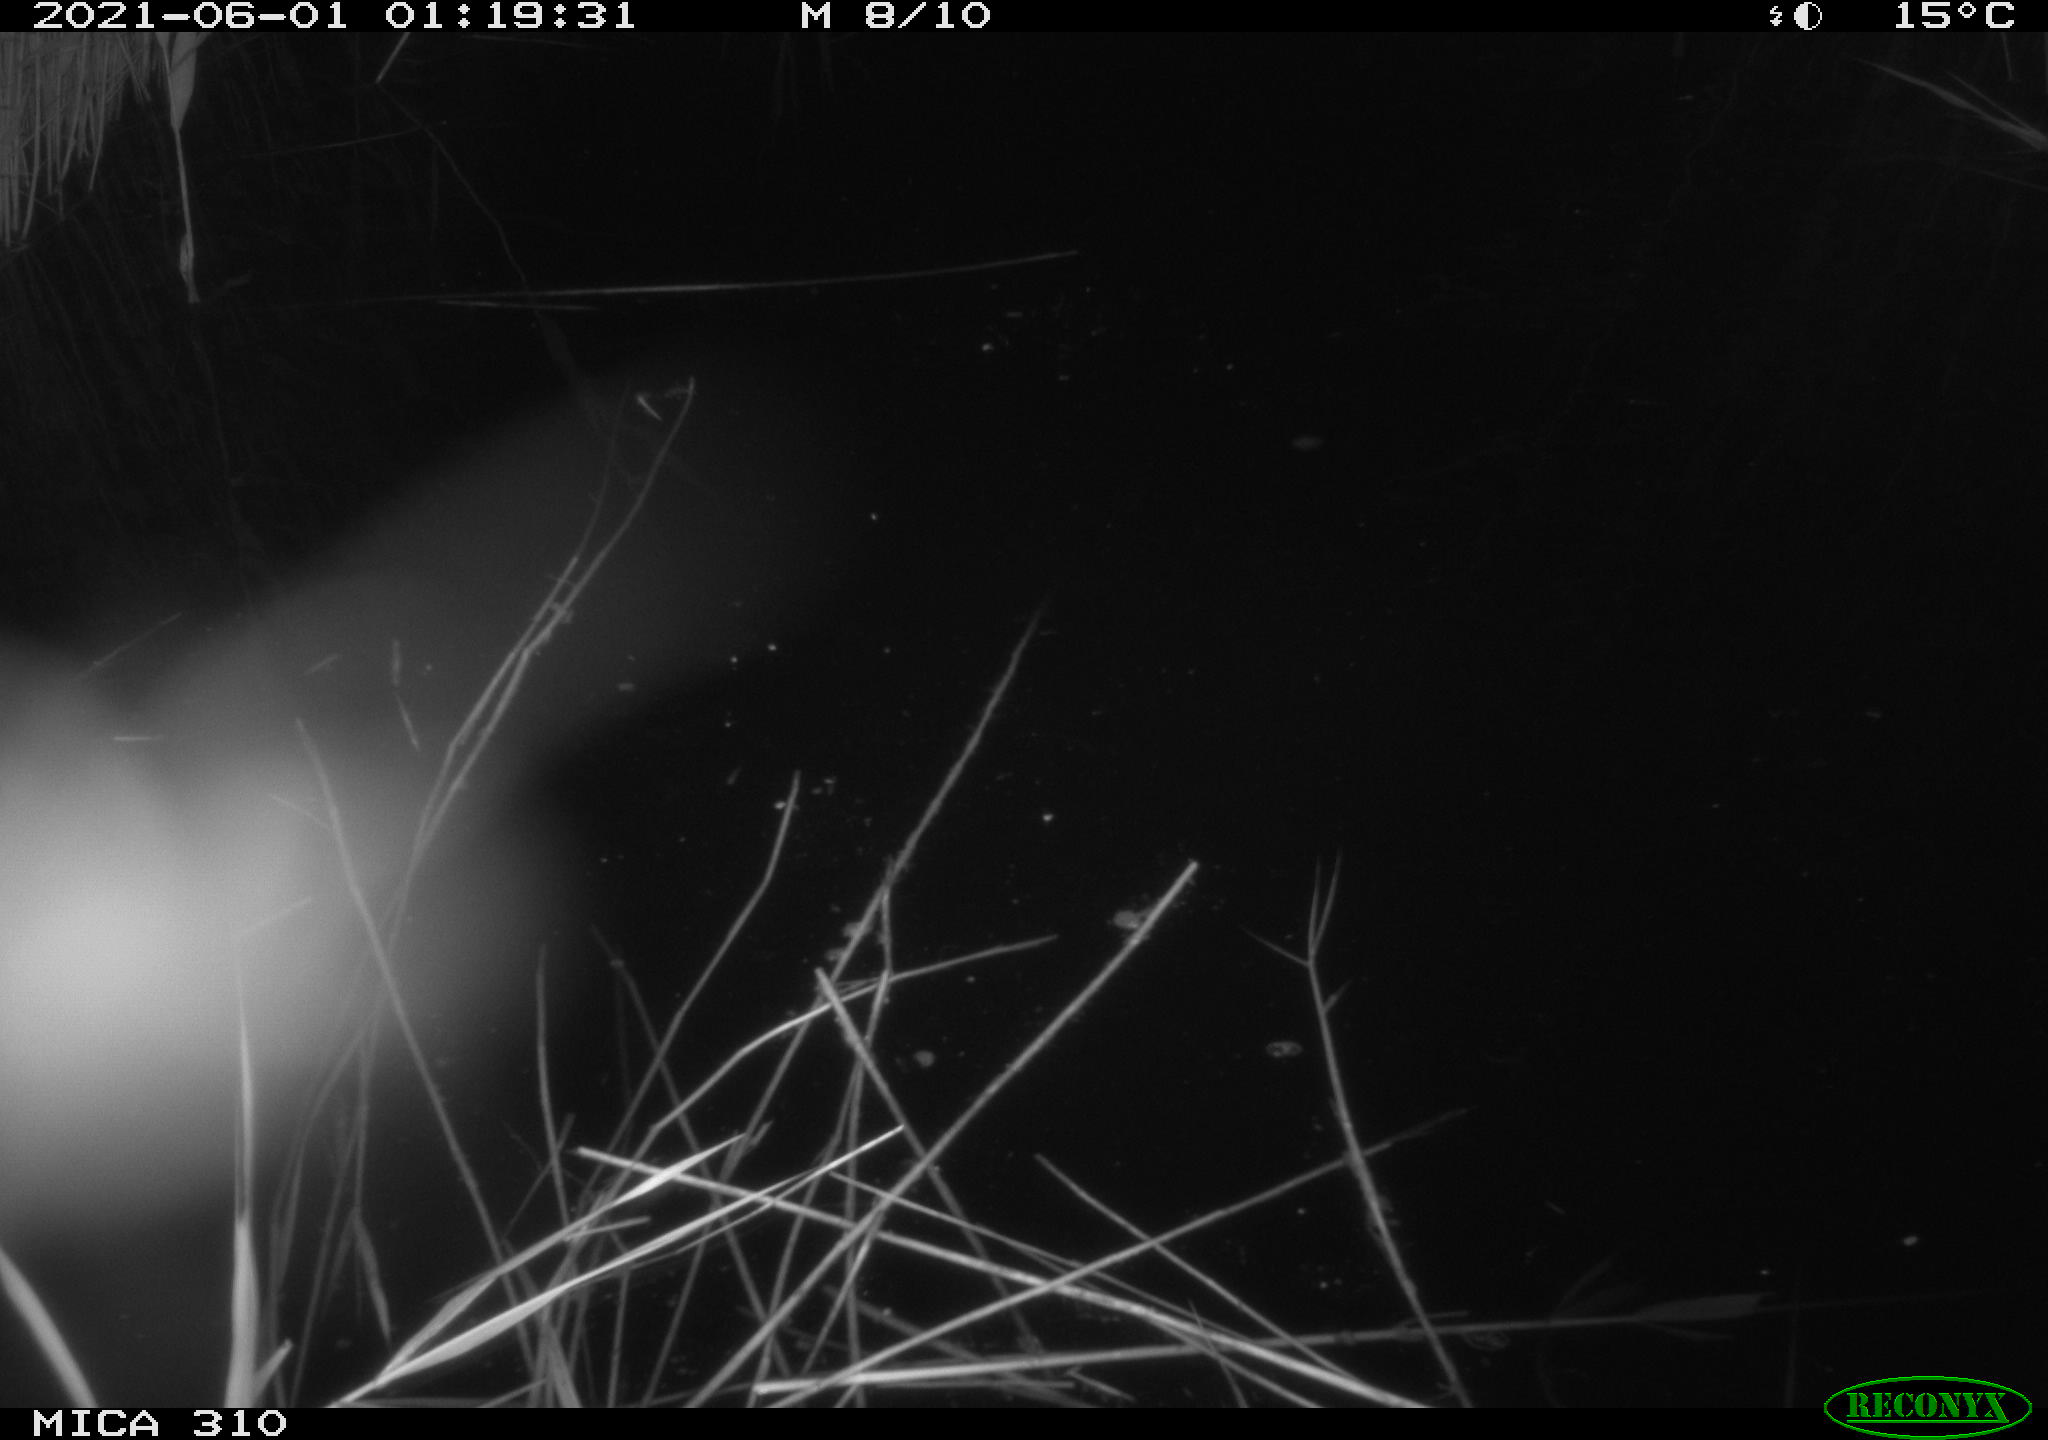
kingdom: Animalia
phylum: Chordata
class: Mammalia
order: Rodentia
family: Cricetidae
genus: Ondatra
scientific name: Ondatra zibethicus
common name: Muskrat
